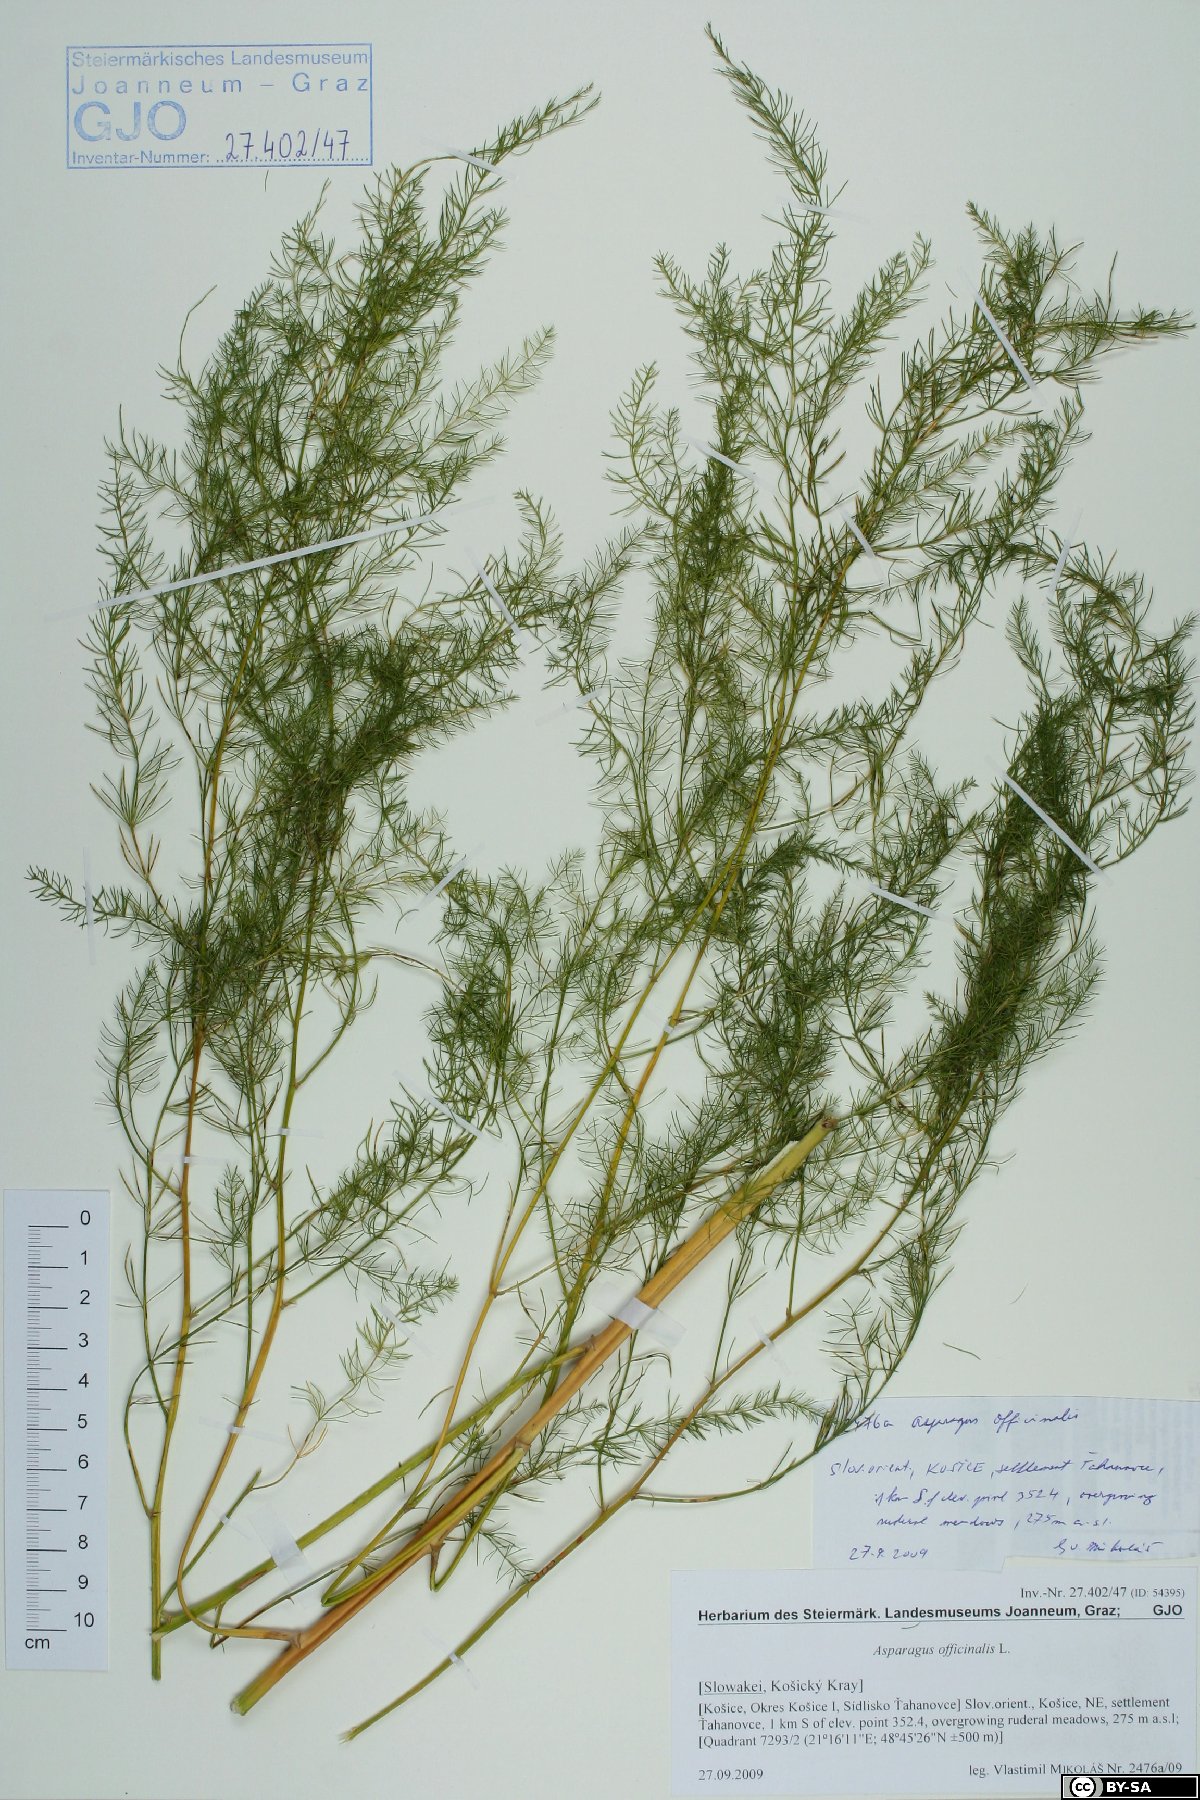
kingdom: Plantae
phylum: Tracheophyta
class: Liliopsida
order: Asparagales
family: Asparagaceae
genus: Asparagus
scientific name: Asparagus officinalis
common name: Garden asparagus
